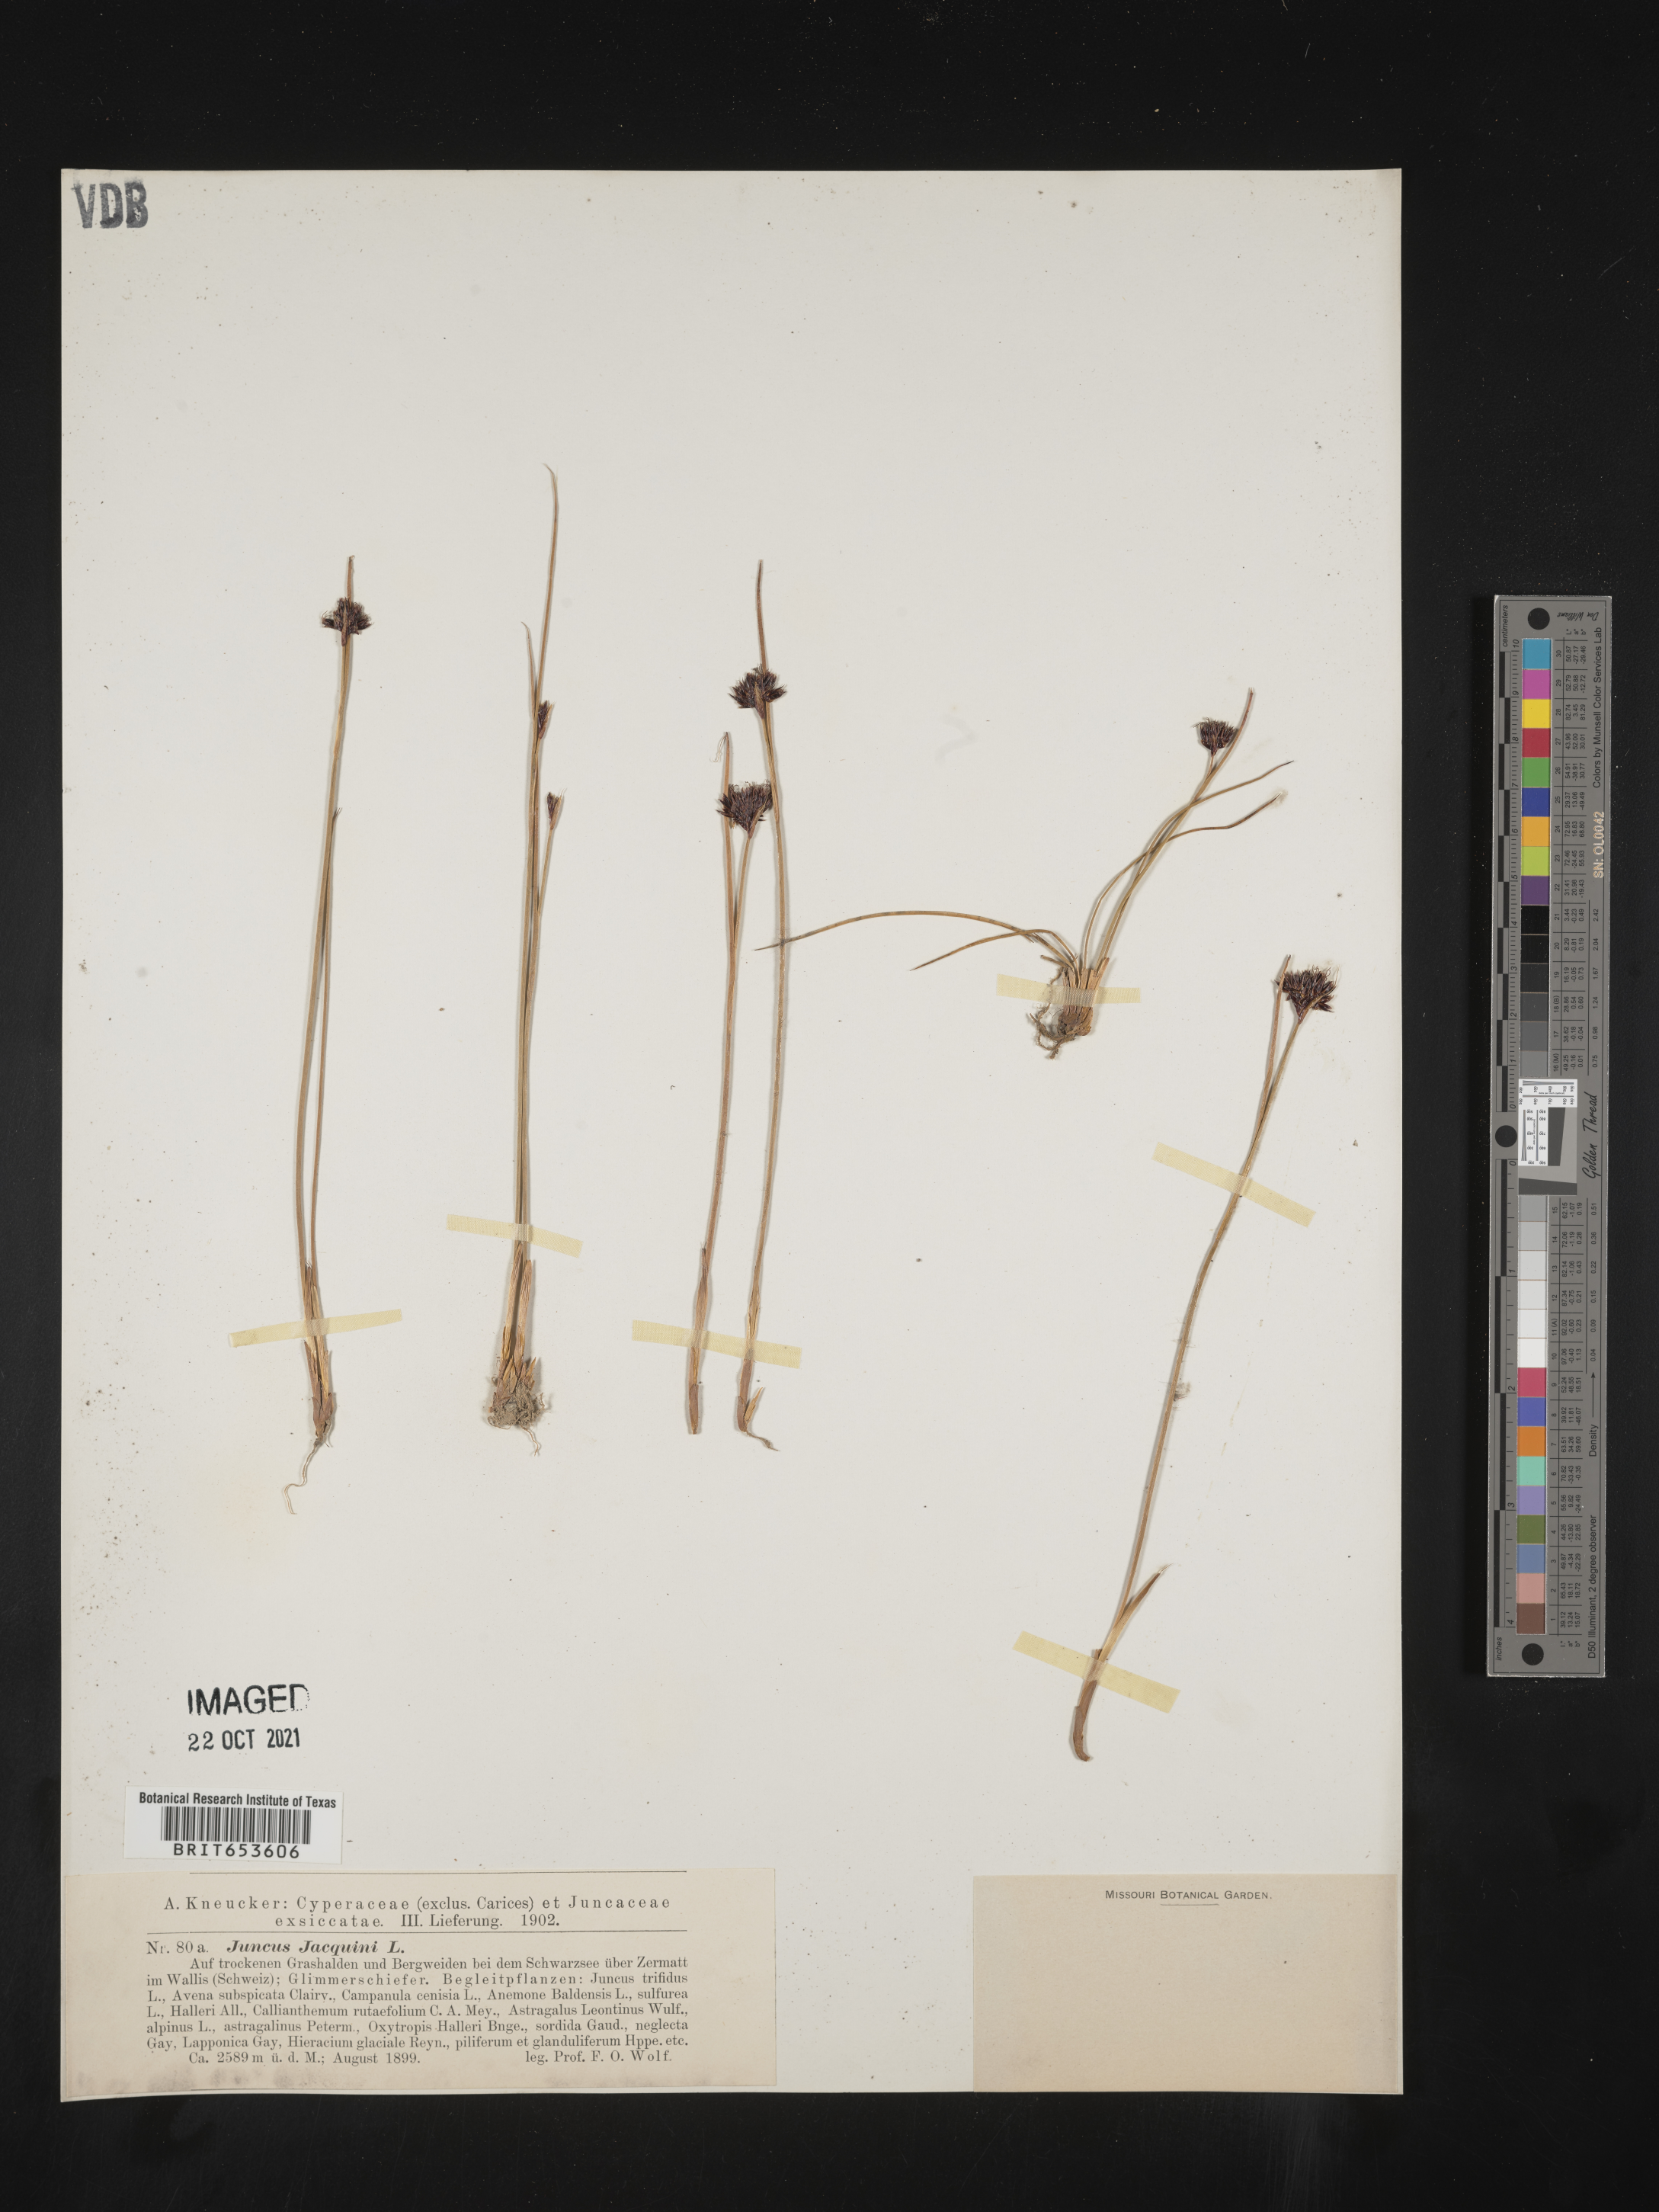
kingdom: Plantae
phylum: Tracheophyta
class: Liliopsida
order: Poales
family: Juncaceae
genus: Juncus
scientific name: Juncus
